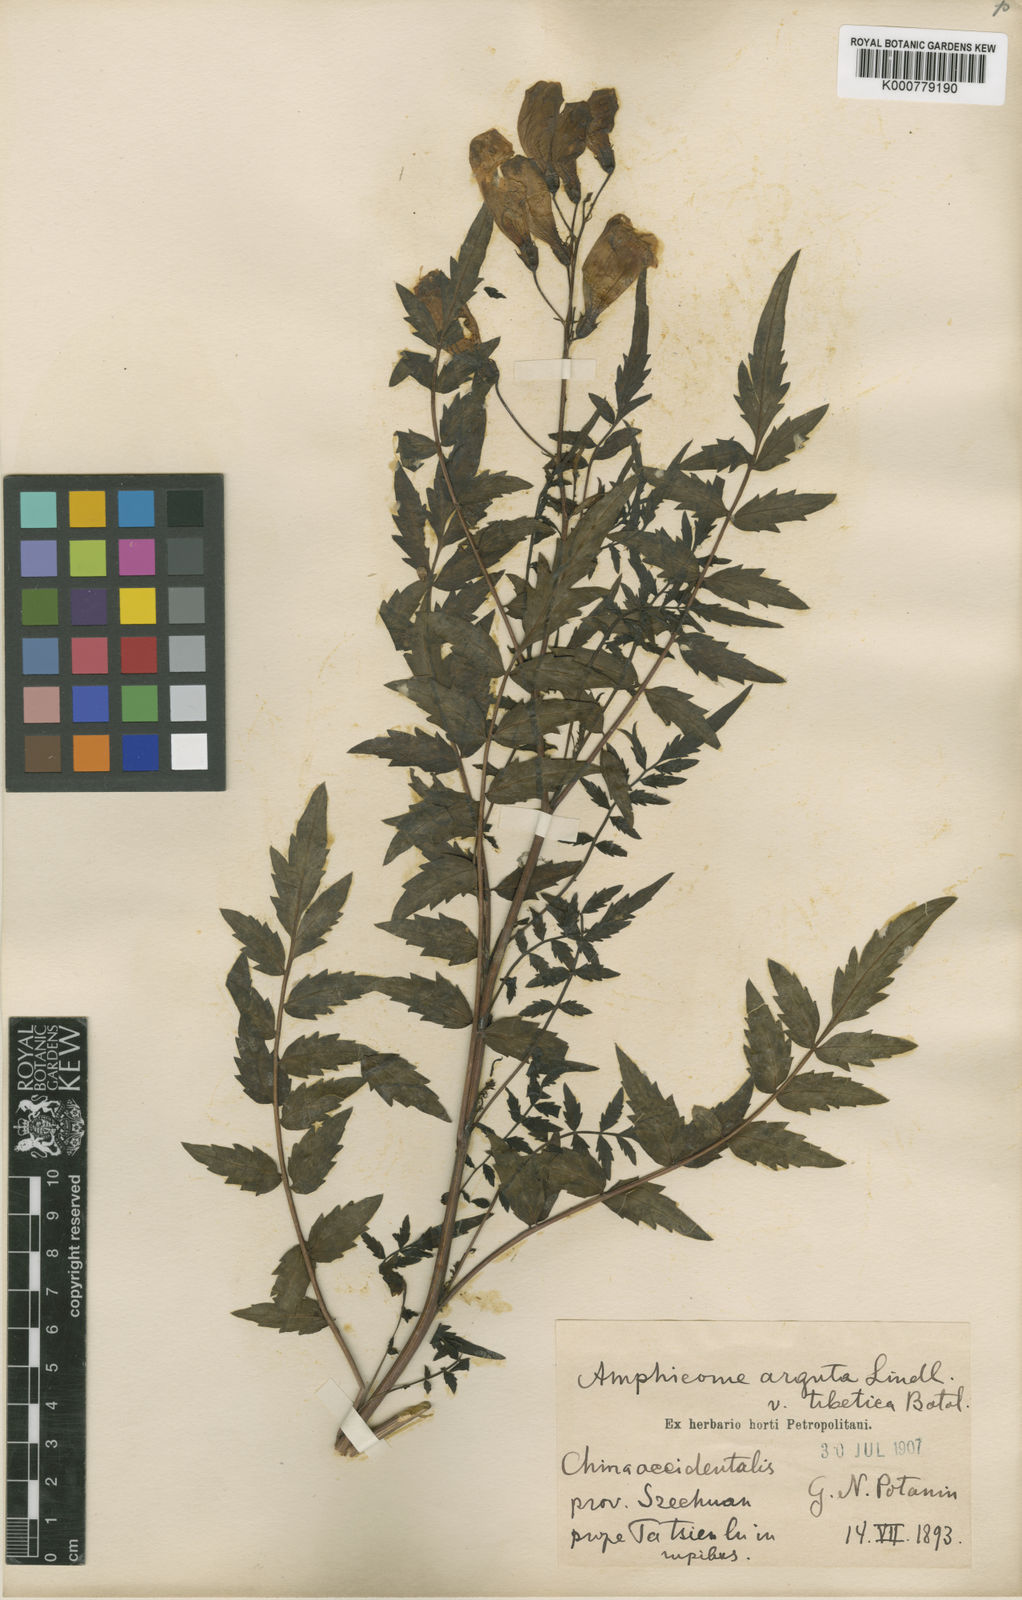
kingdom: Plantae
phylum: Tracheophyta
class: Magnoliopsida
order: Lamiales
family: Bignoniaceae
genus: Incarvillea
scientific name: Incarvillea diffusa
